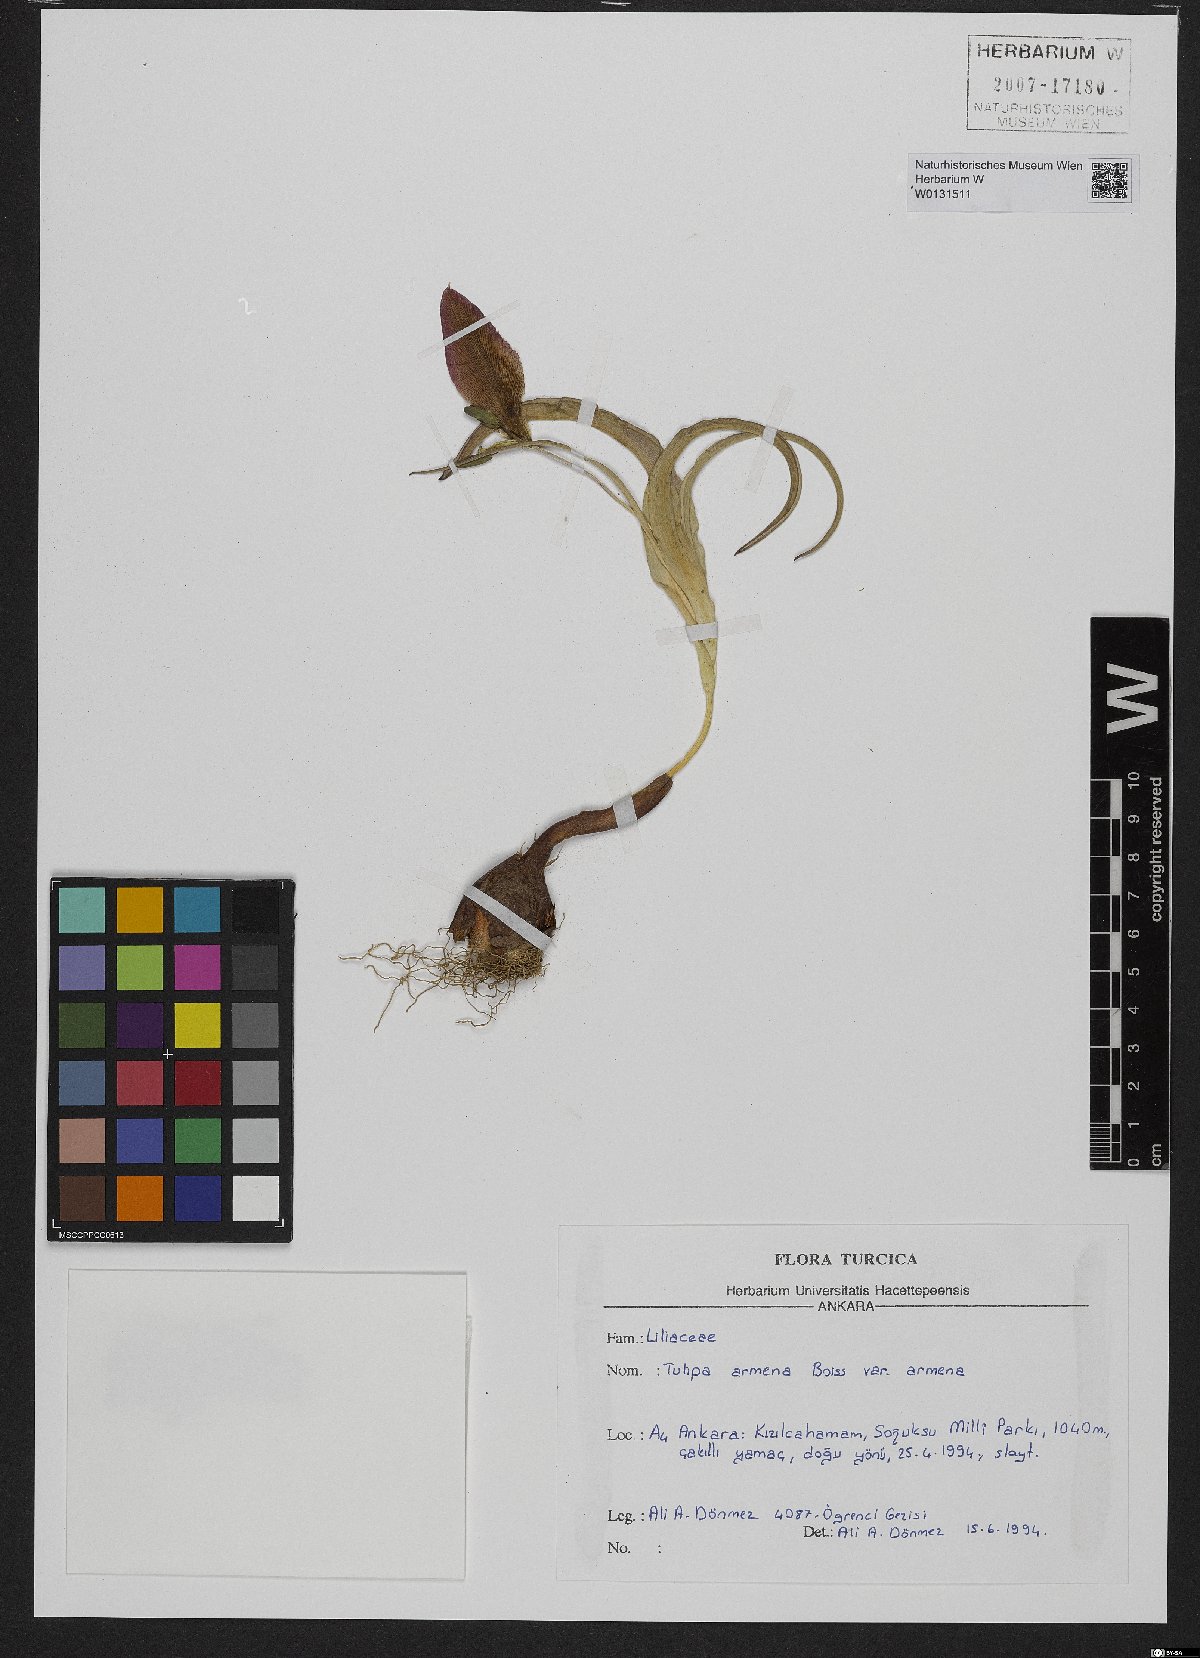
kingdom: Plantae
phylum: Tracheophyta
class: Liliopsida
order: Liliales
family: Liliaceae
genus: Tulipa
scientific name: Tulipa armena
